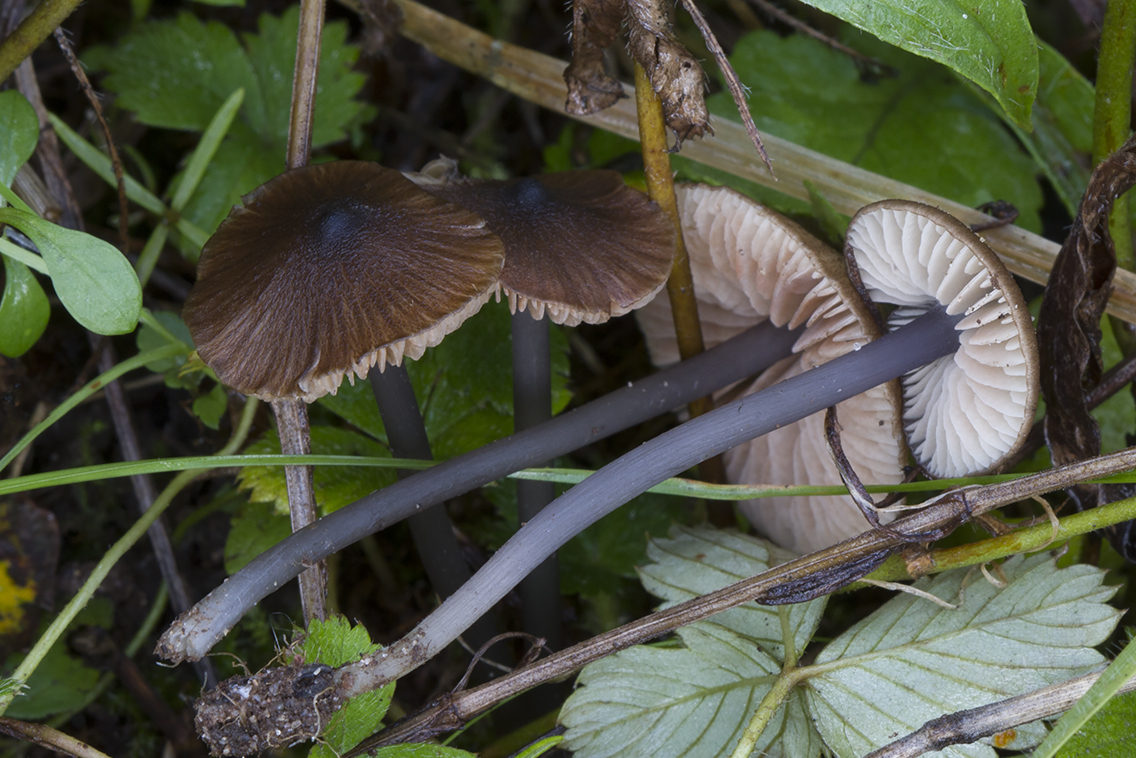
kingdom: Fungi
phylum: Basidiomycota
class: Agaricomycetes
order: Agaricales
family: Entolomataceae
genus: Entoloma
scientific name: Entoloma indikon
